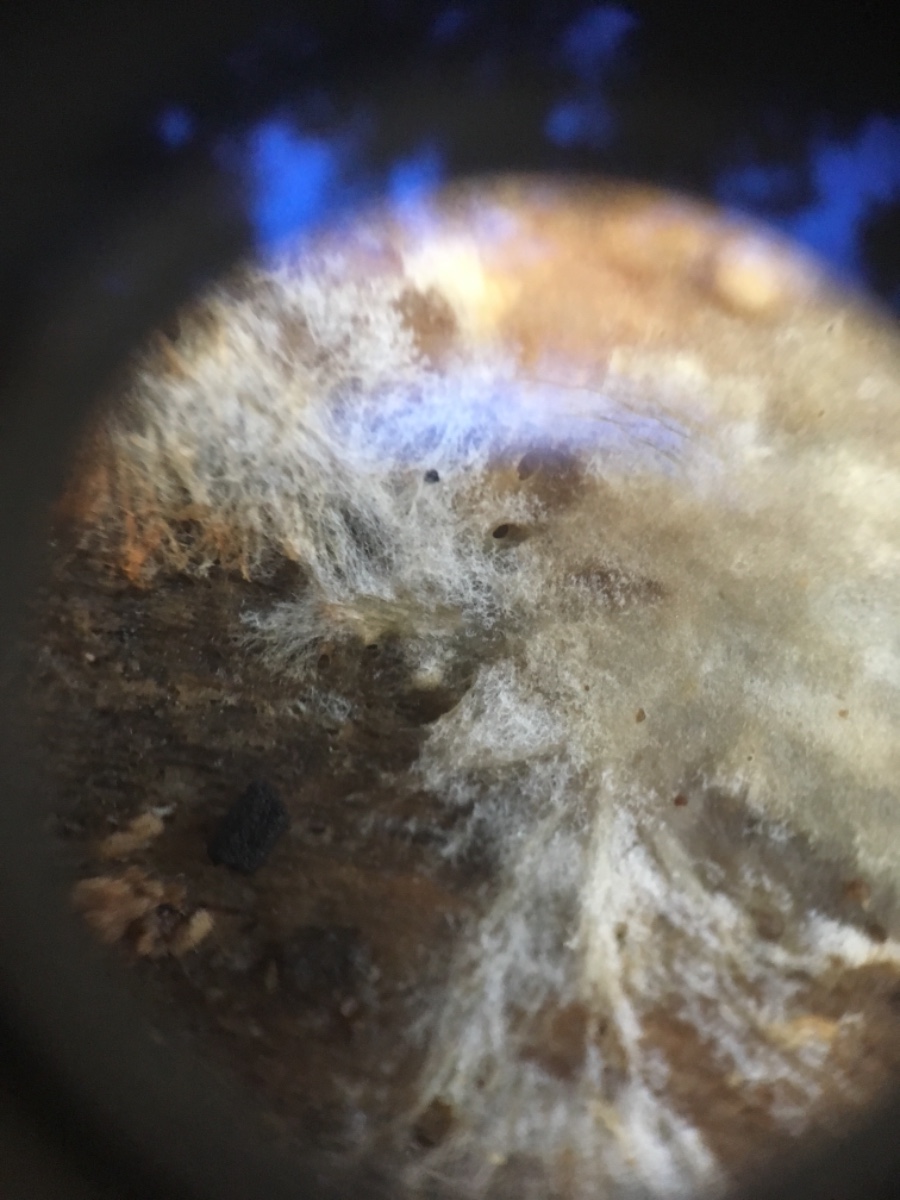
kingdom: Fungi
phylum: Basidiomycota
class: Agaricomycetes
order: Corticiales
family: Corticiaceae
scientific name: Corticiaceae
